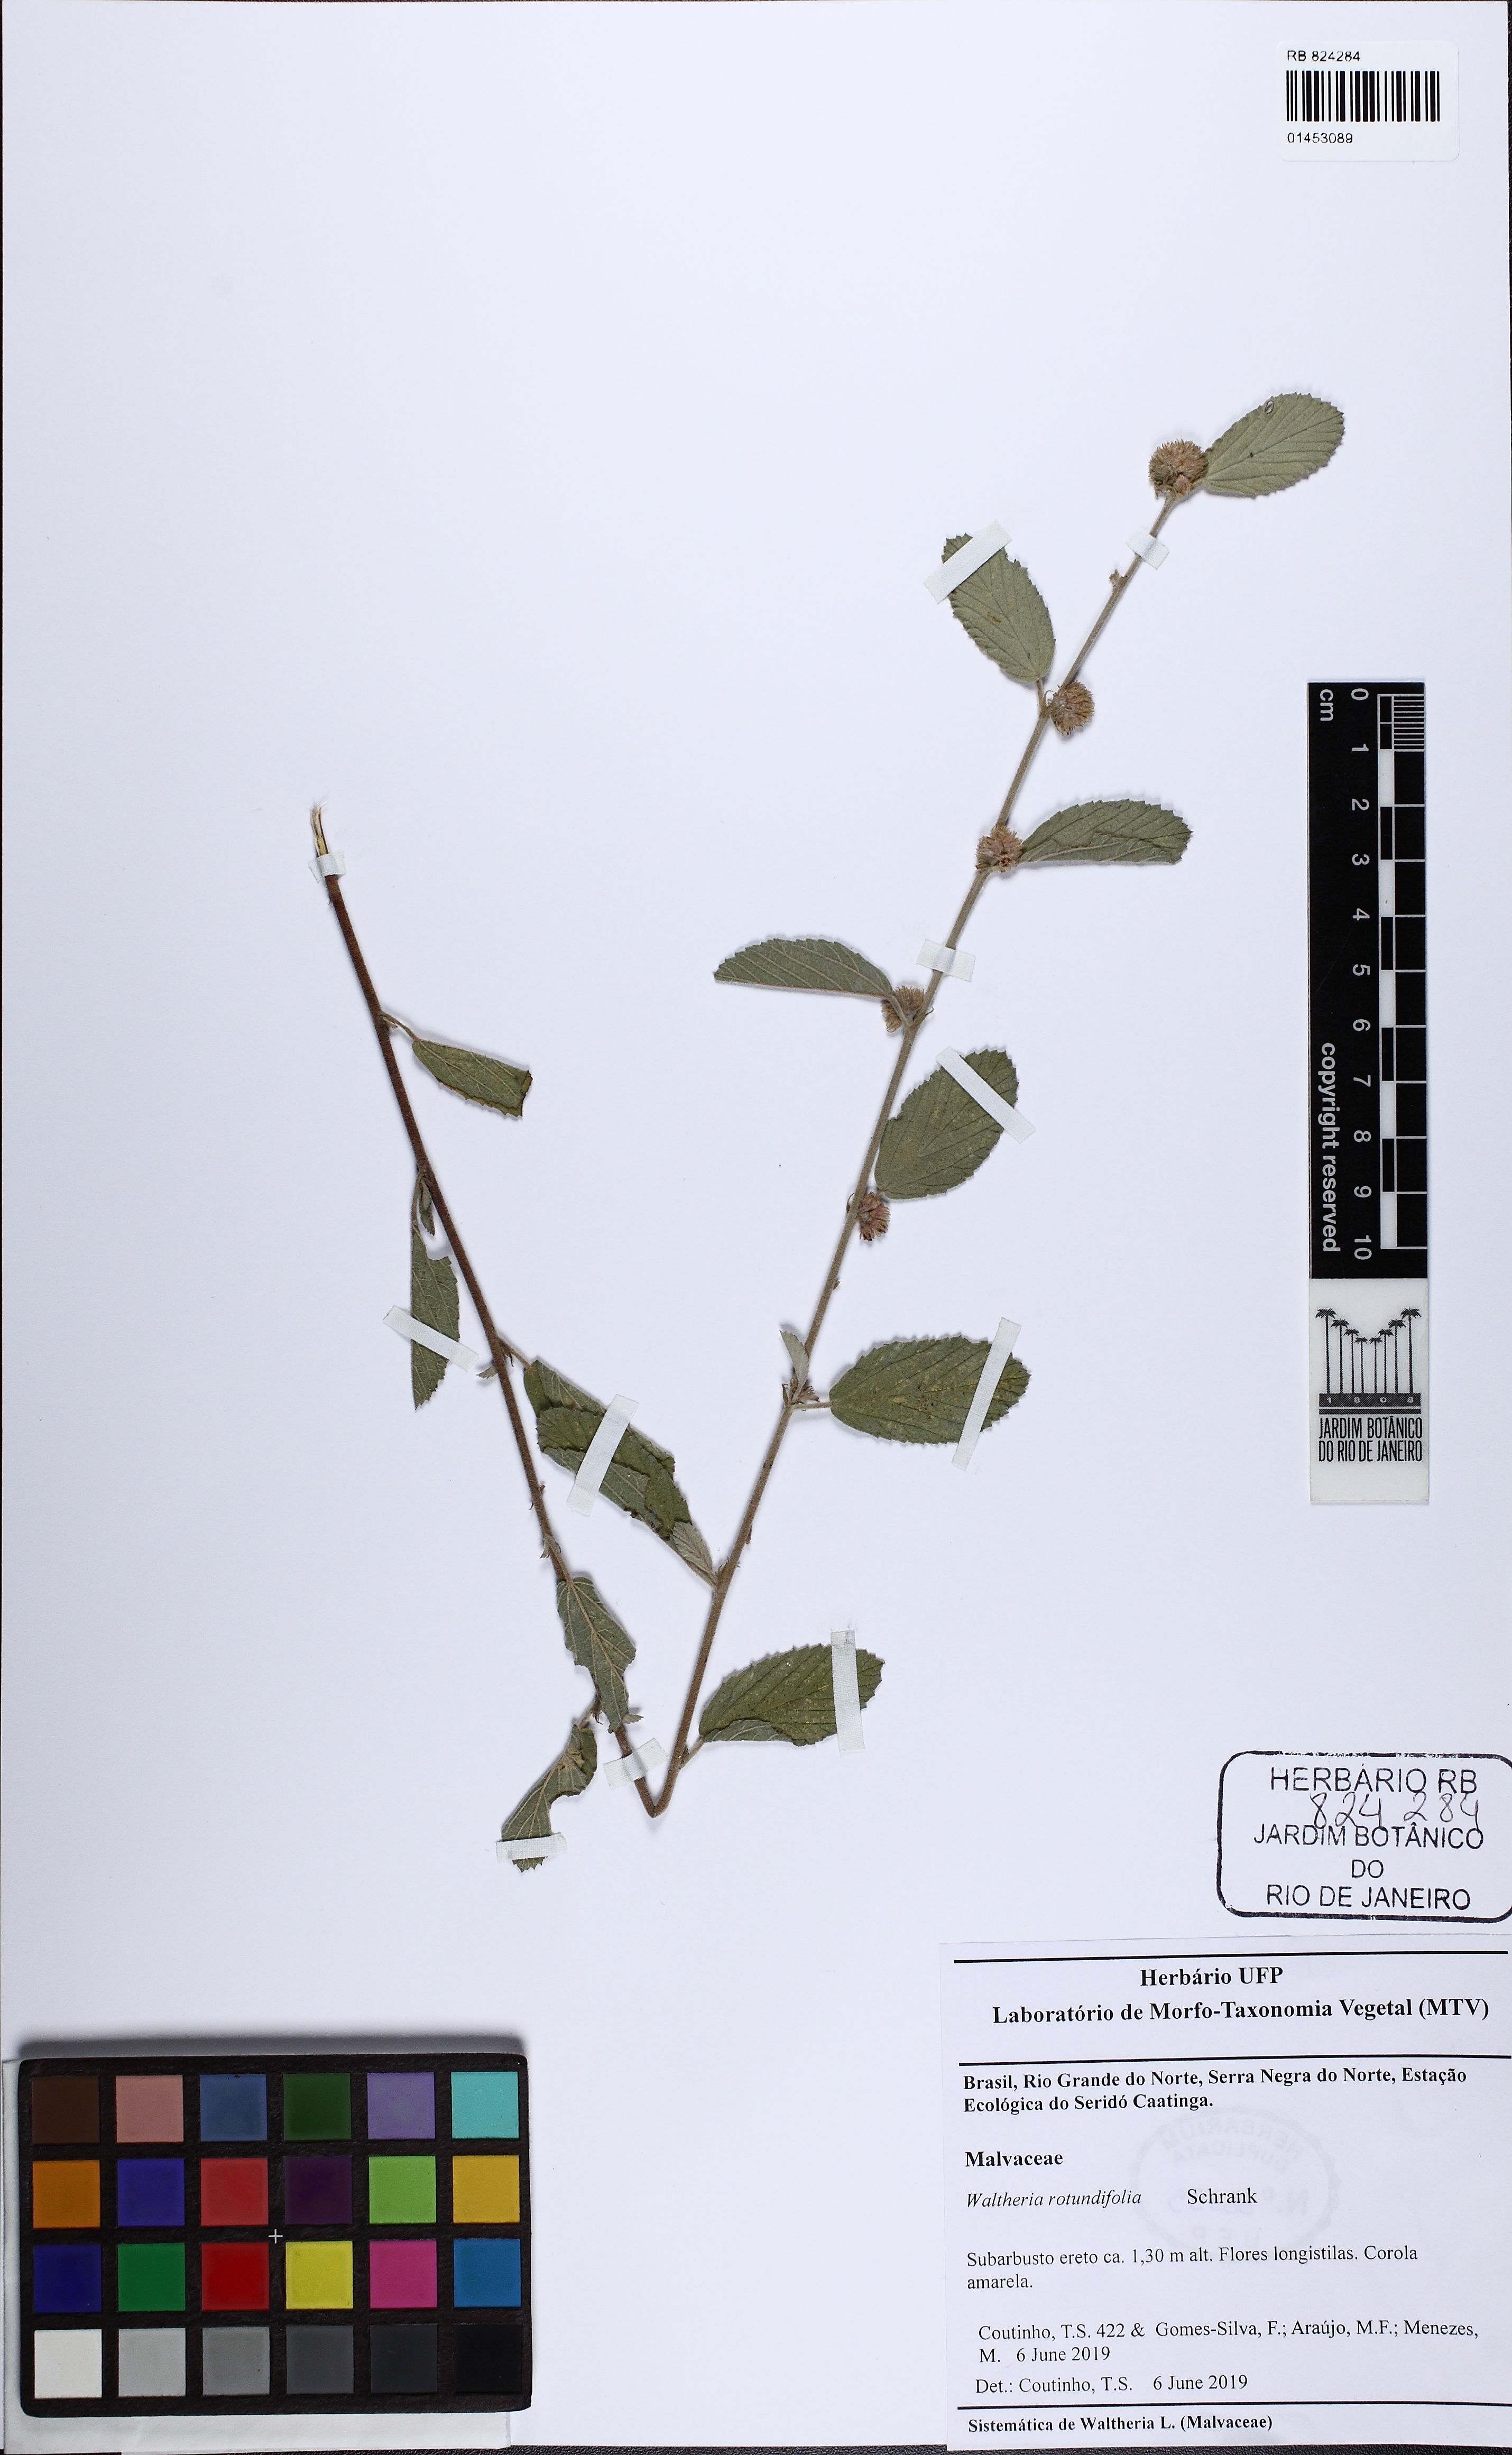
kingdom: Plantae
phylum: Tracheophyta
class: Magnoliopsida
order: Malvales
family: Malvaceae
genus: Waltheria
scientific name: Waltheria rotundifolia
